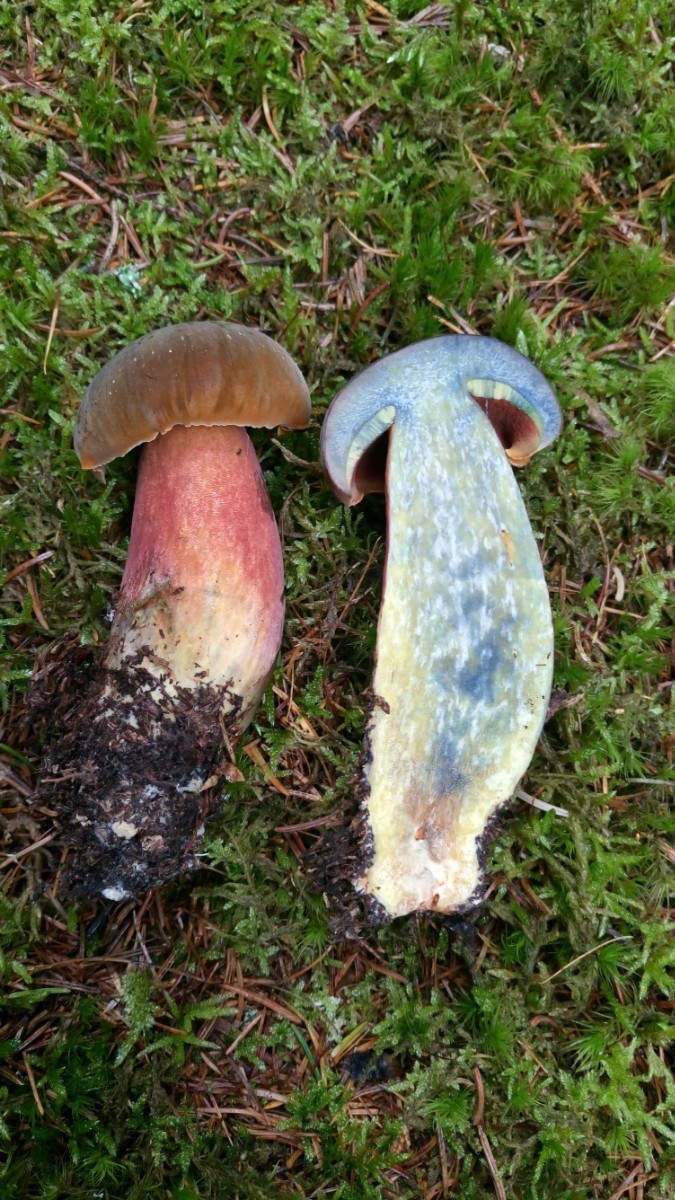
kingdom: Fungi
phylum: Basidiomycota
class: Agaricomycetes
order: Boletales
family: Boletaceae
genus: Neoboletus
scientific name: Neoboletus erythropus
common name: punktstokket indigorørhat
